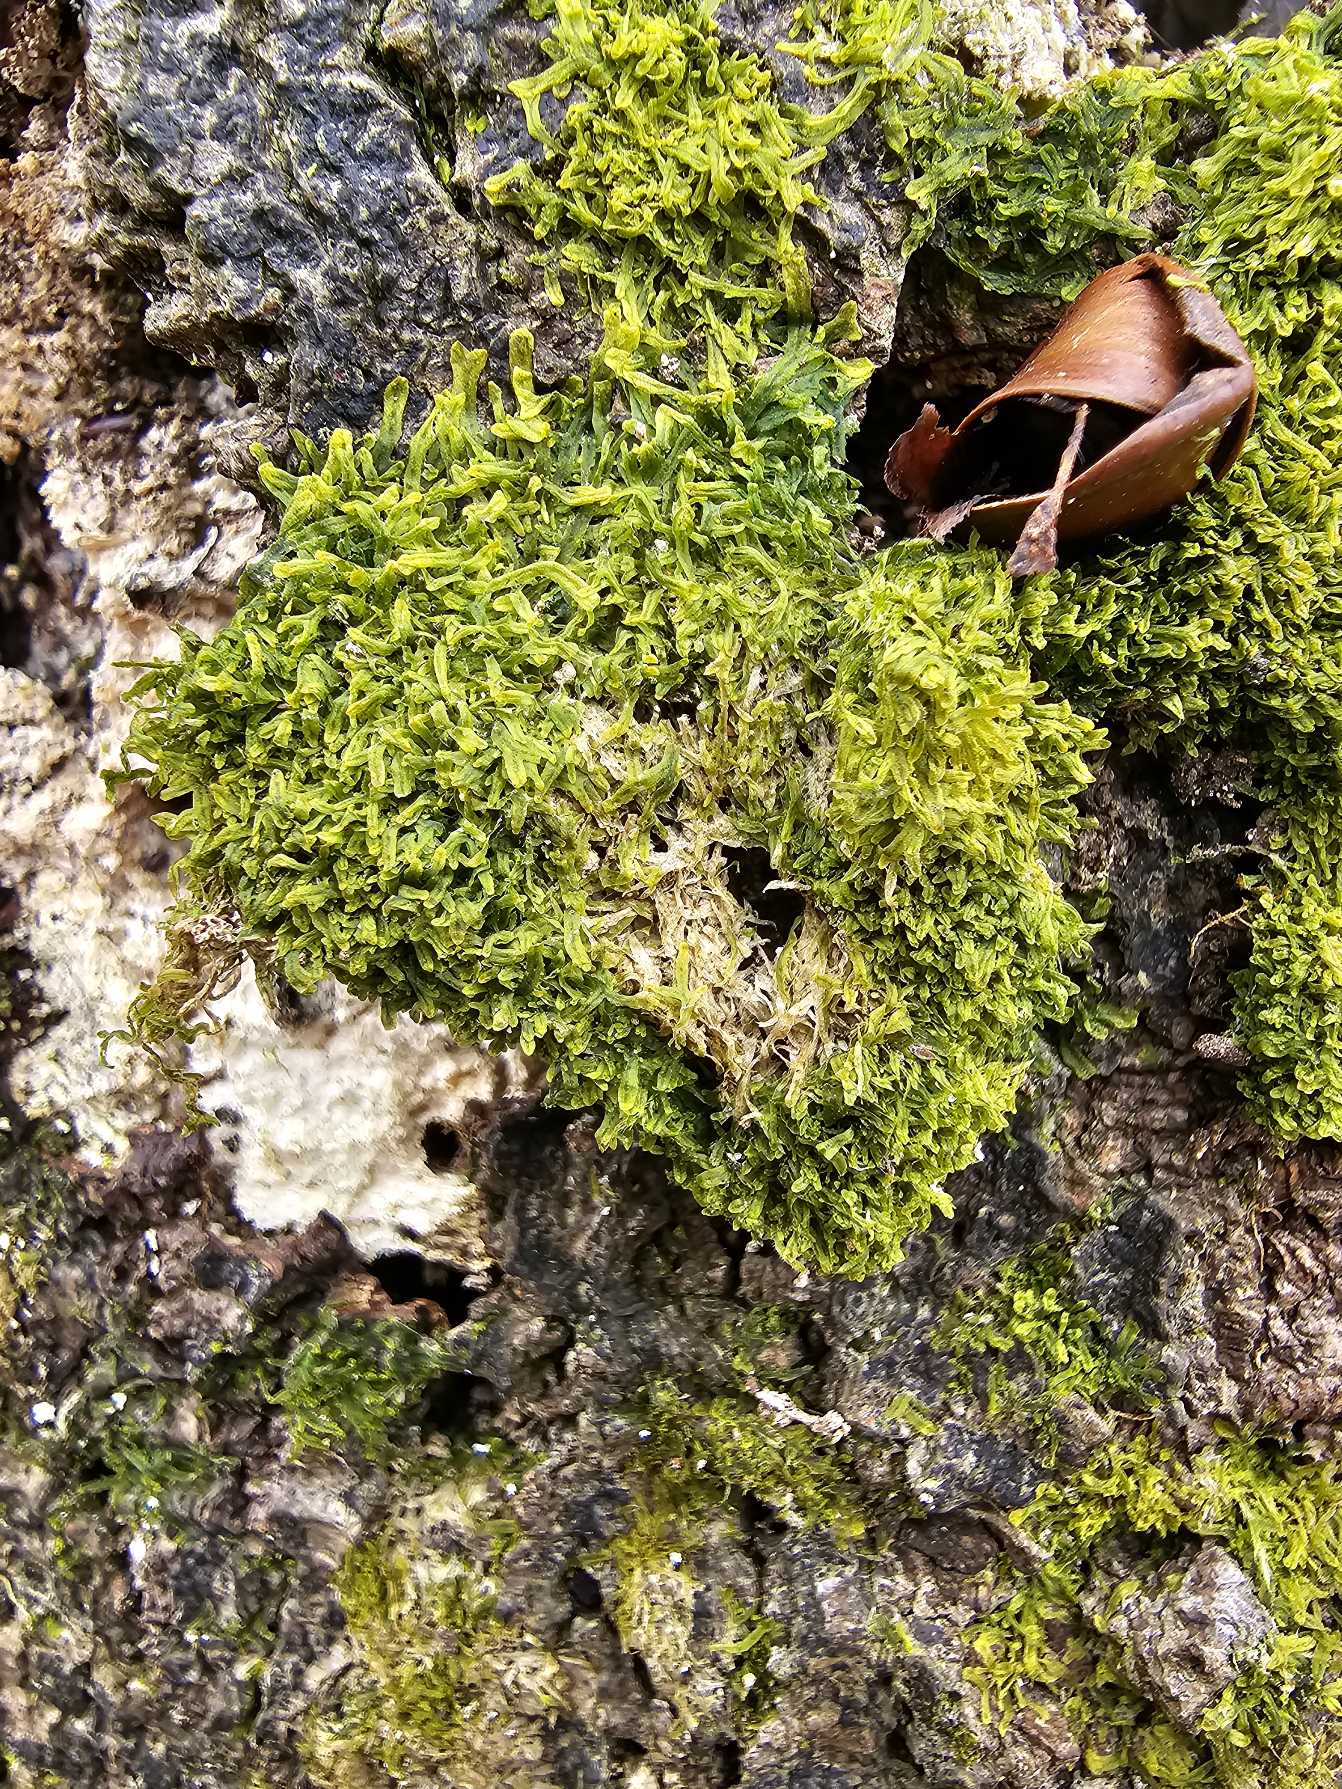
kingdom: Plantae
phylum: Marchantiophyta
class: Jungermanniopsida
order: Metzgeriales
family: Metzgeriaceae
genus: Metzgeria
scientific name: Metzgeria furcata
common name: Almindelig gaffelløv
